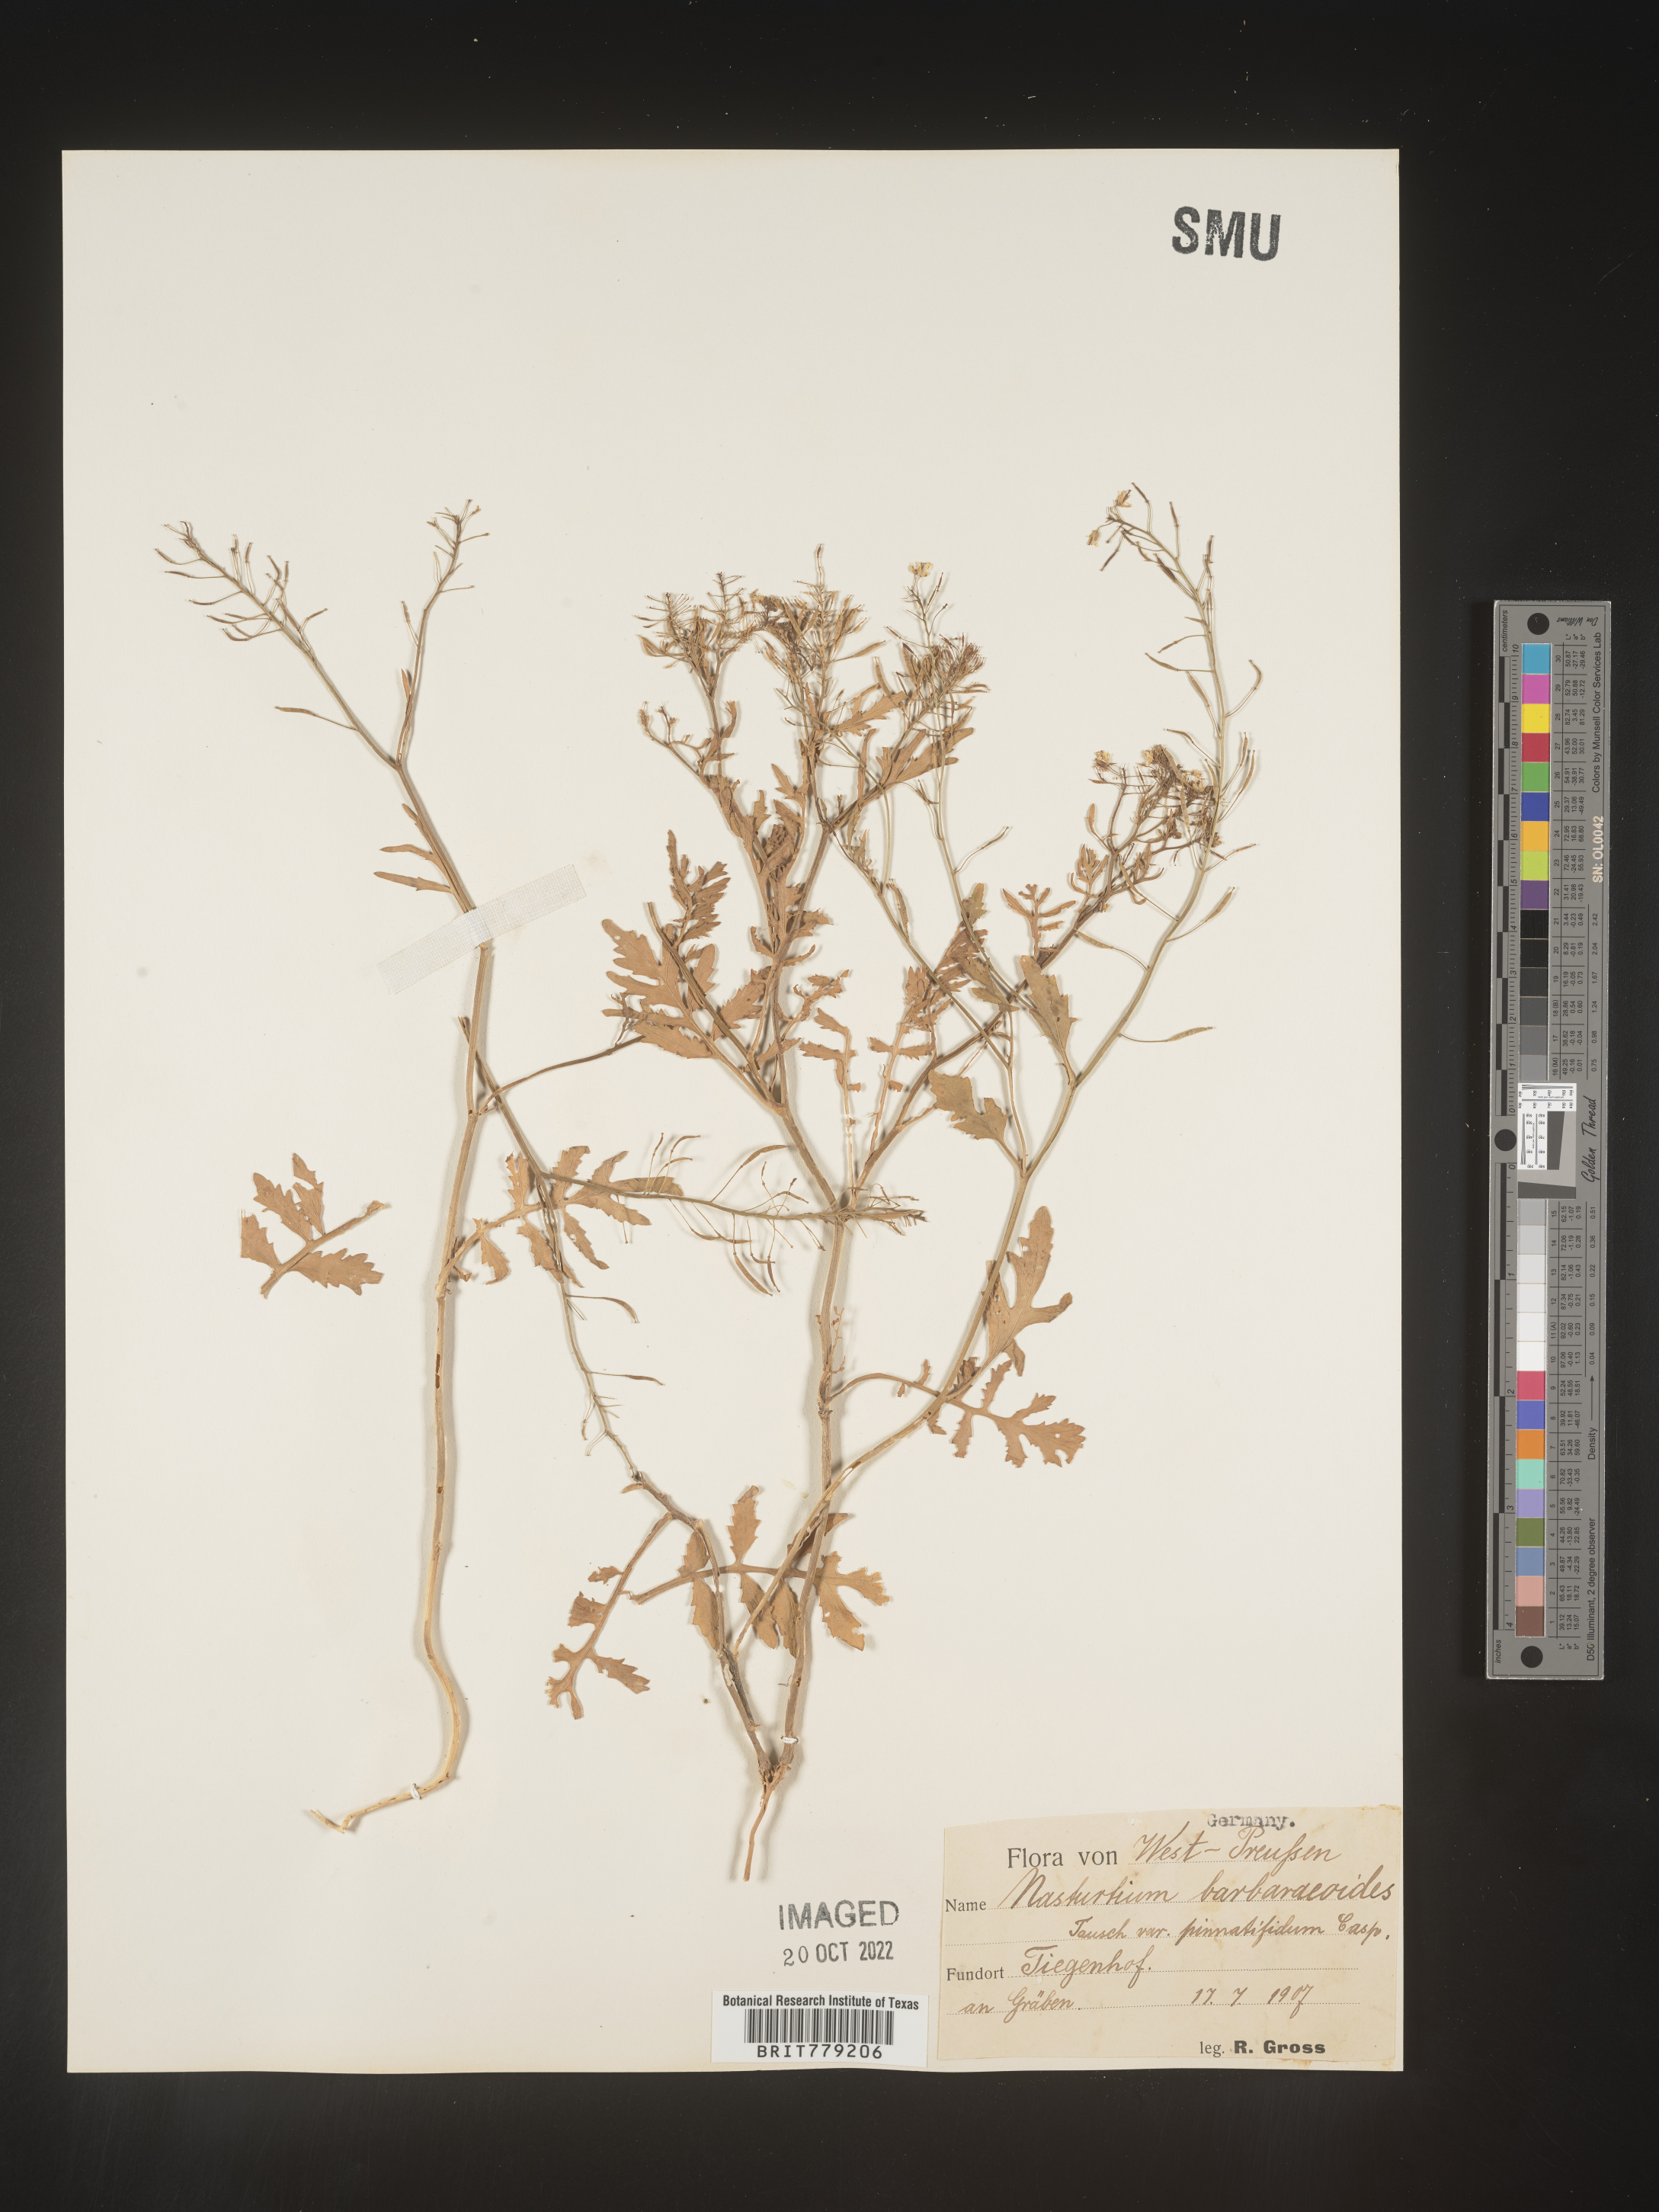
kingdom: Plantae
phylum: Tracheophyta
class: Magnoliopsida
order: Brassicales
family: Brassicaceae
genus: Rorippa
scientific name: Rorippa
